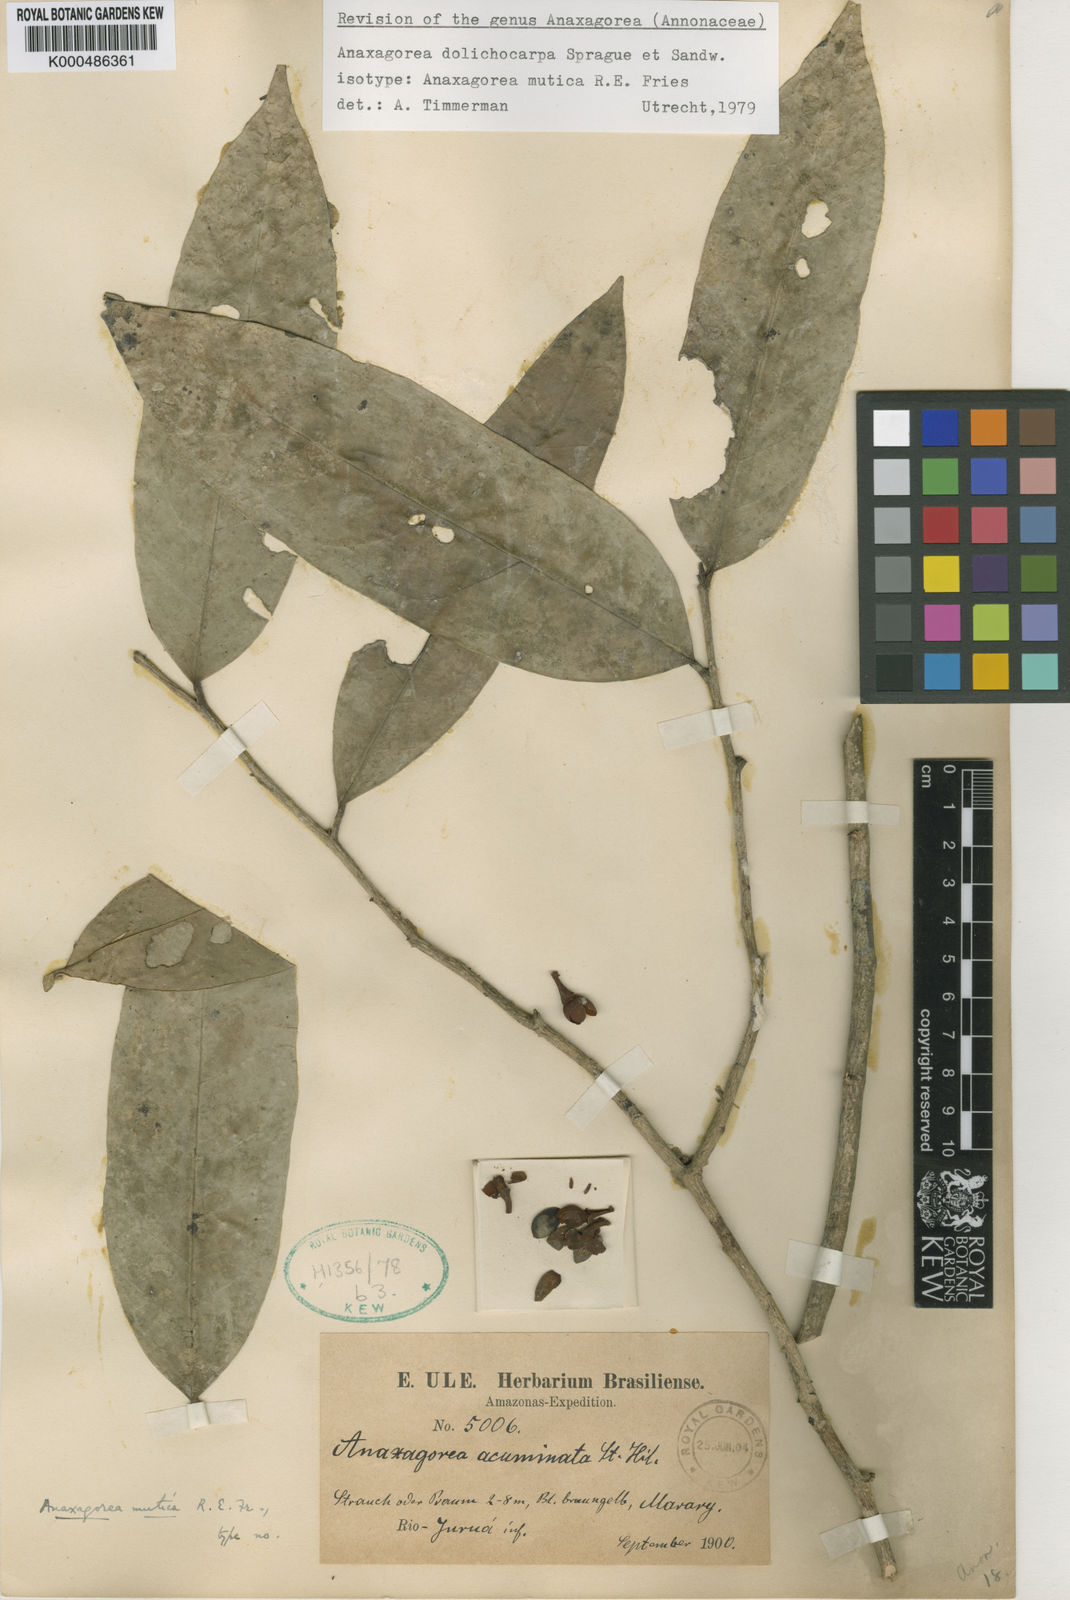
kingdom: Plantae
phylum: Tracheophyta
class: Magnoliopsida
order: Magnoliales
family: Annonaceae
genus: Anaxagorea
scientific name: Anaxagorea dolichocarpa
